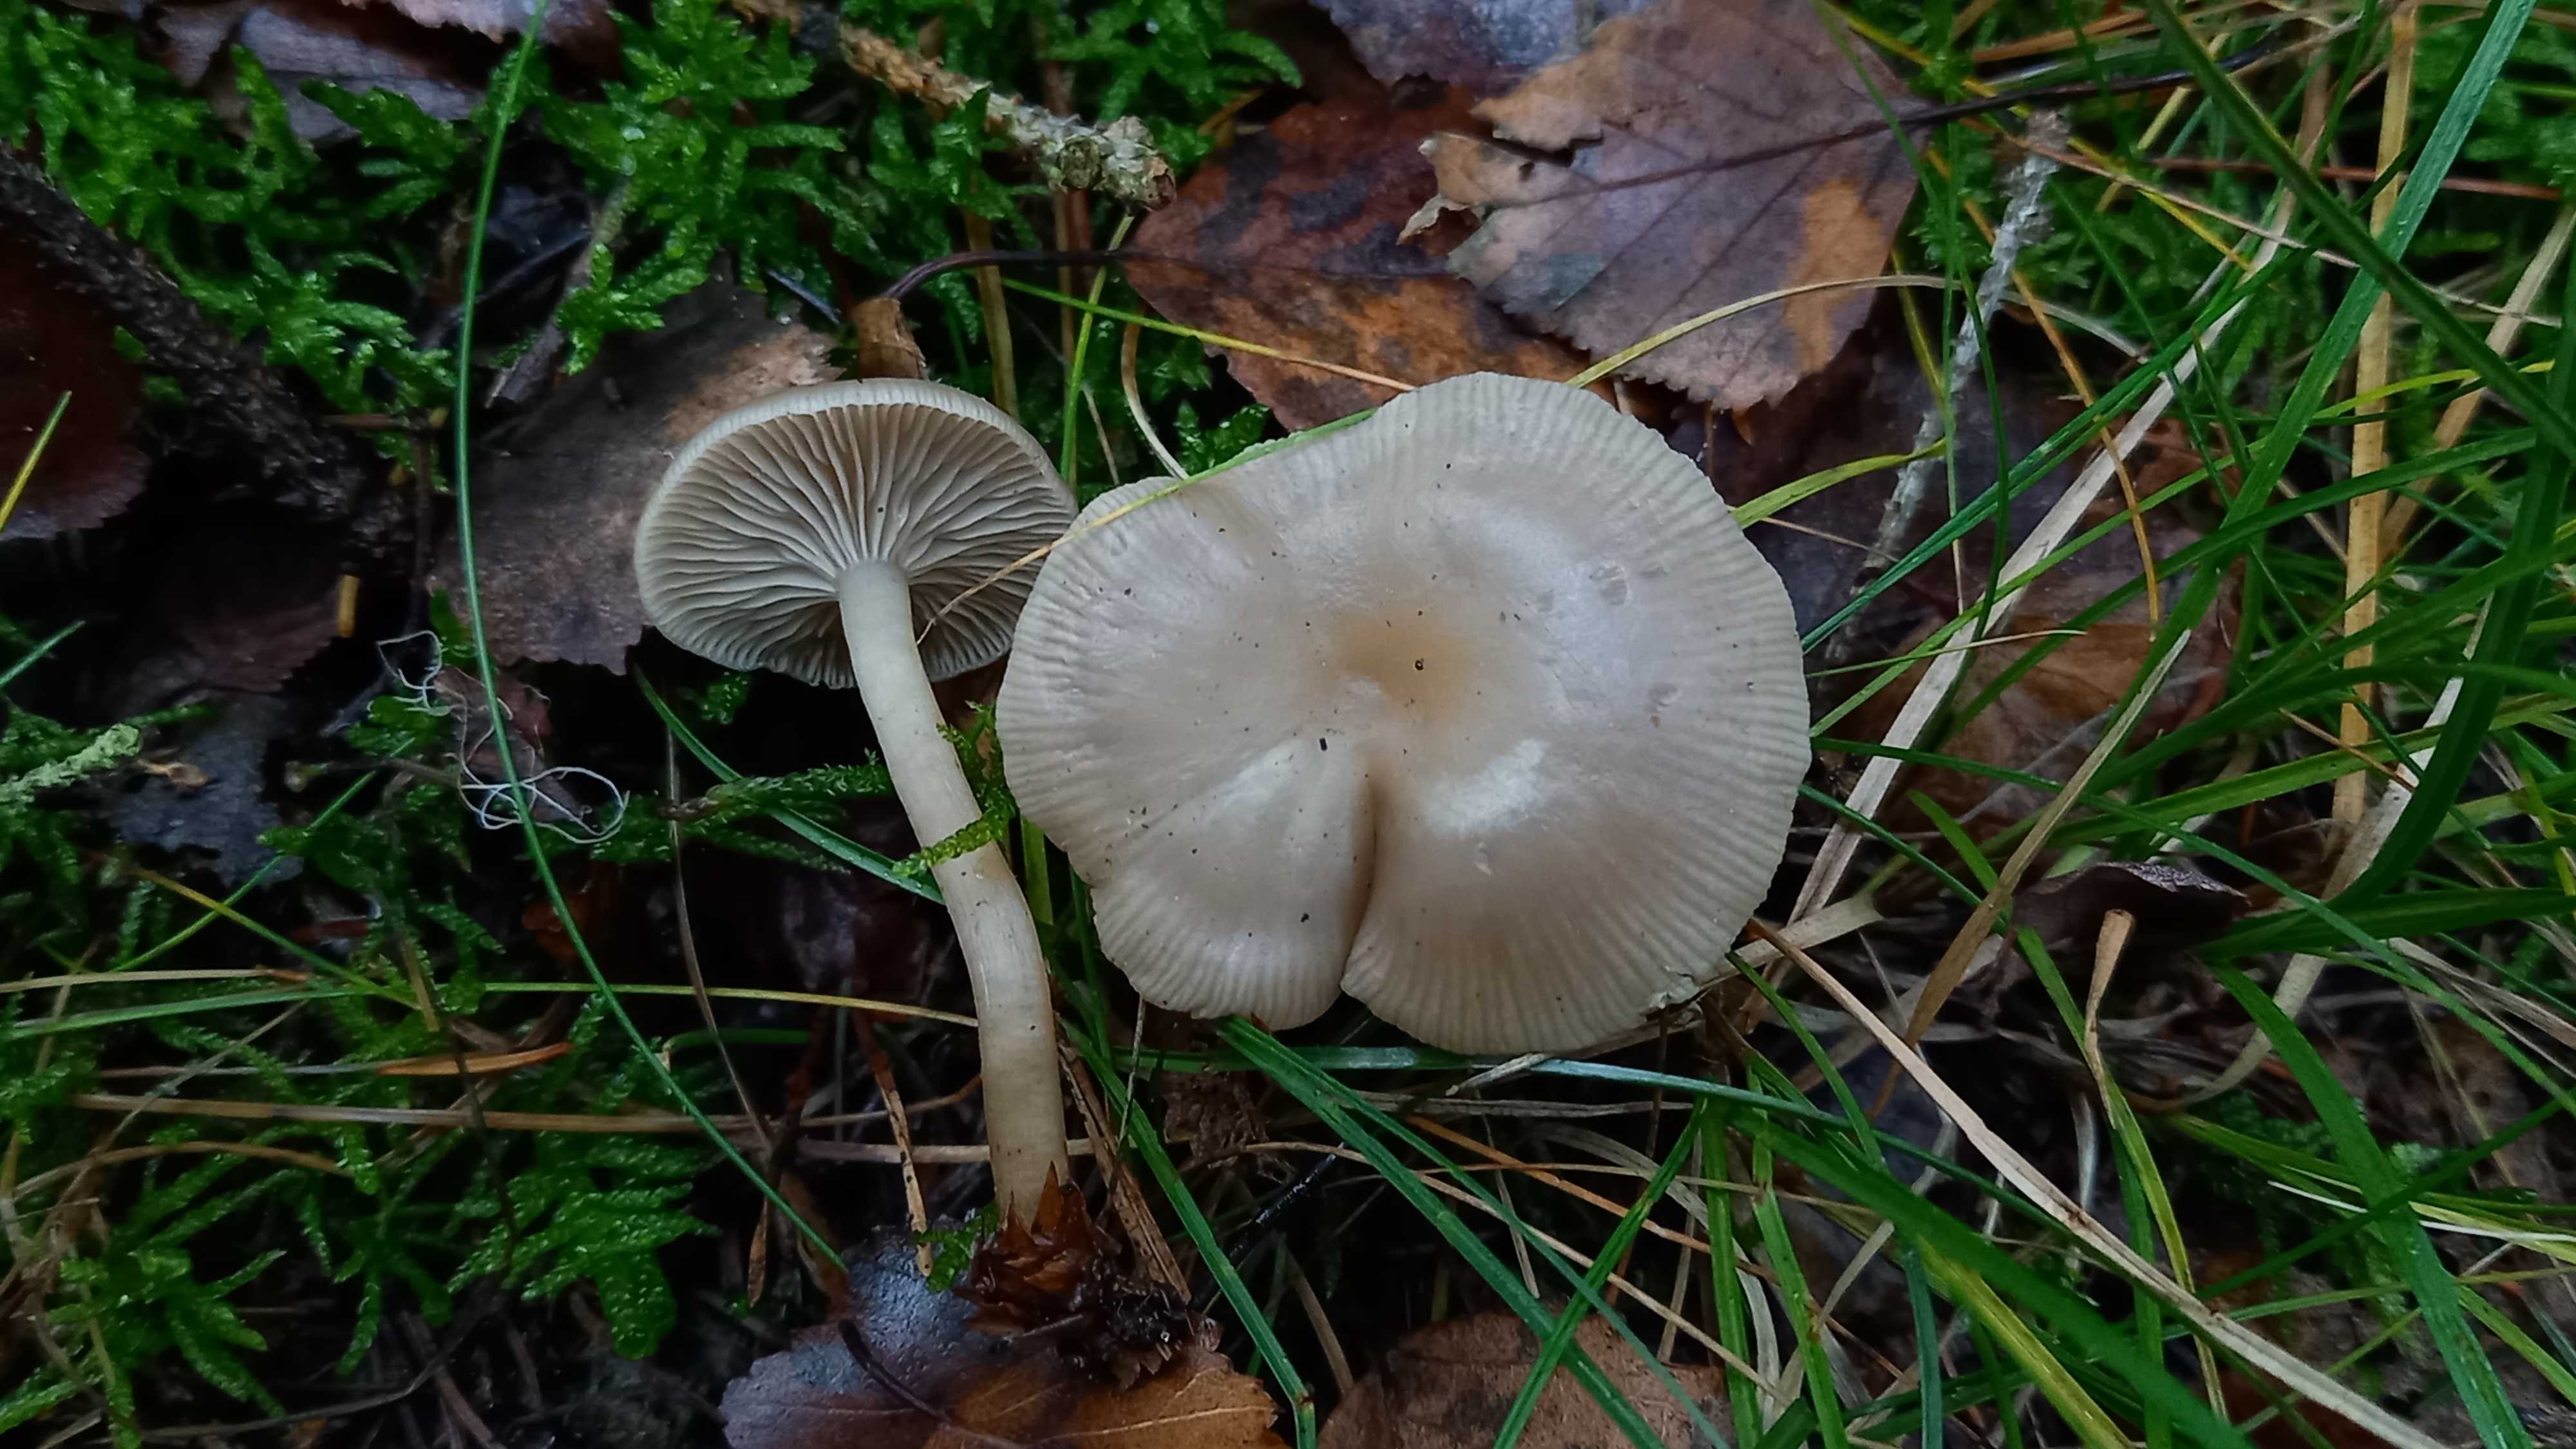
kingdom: Fungi
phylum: Basidiomycota
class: Agaricomycetes
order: Agaricales
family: Tricholomataceae
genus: Clitocybe
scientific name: Clitocybe vibecina
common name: randstribet tragthat
